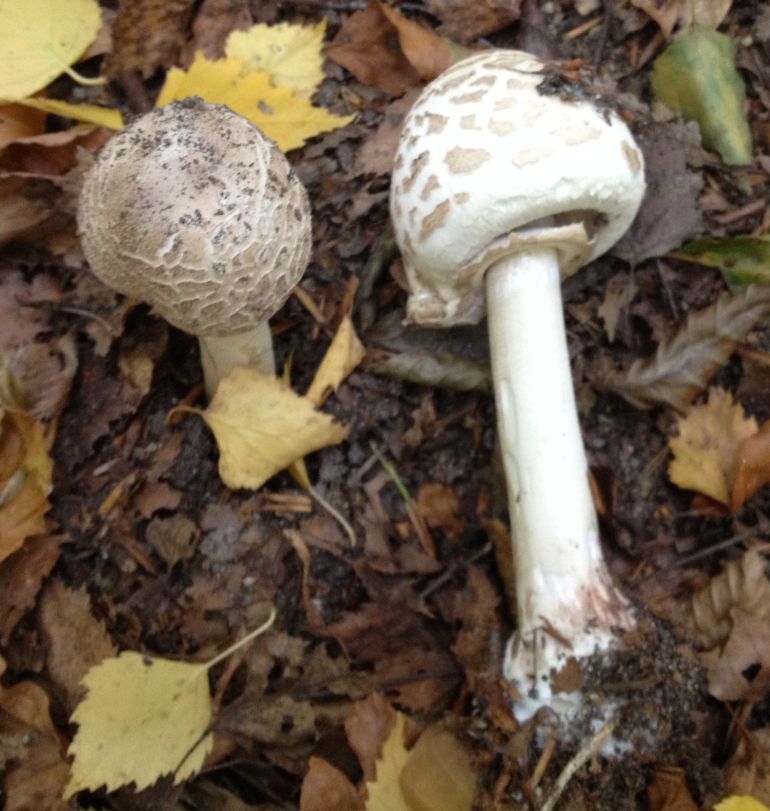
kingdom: Fungi
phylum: Basidiomycota
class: Agaricomycetes
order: Agaricales
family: Agaricaceae
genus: Chlorophyllum
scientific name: Chlorophyllum olivieri
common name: almindelig rabarberhat
